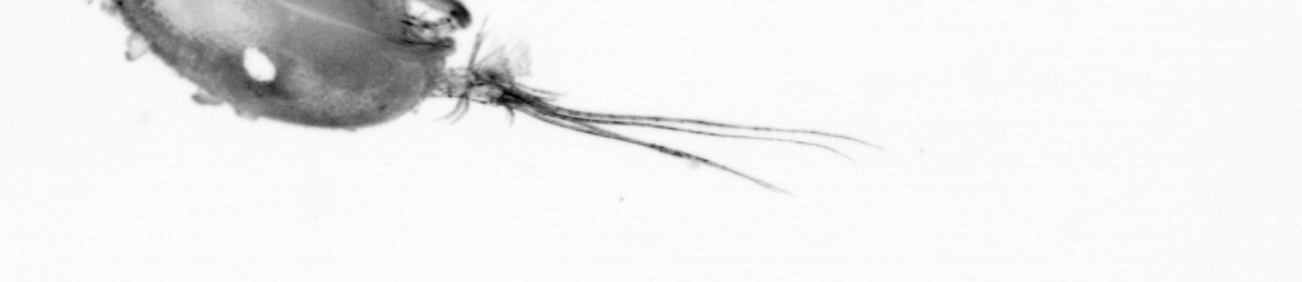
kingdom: Animalia
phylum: Chordata
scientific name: Chordata
